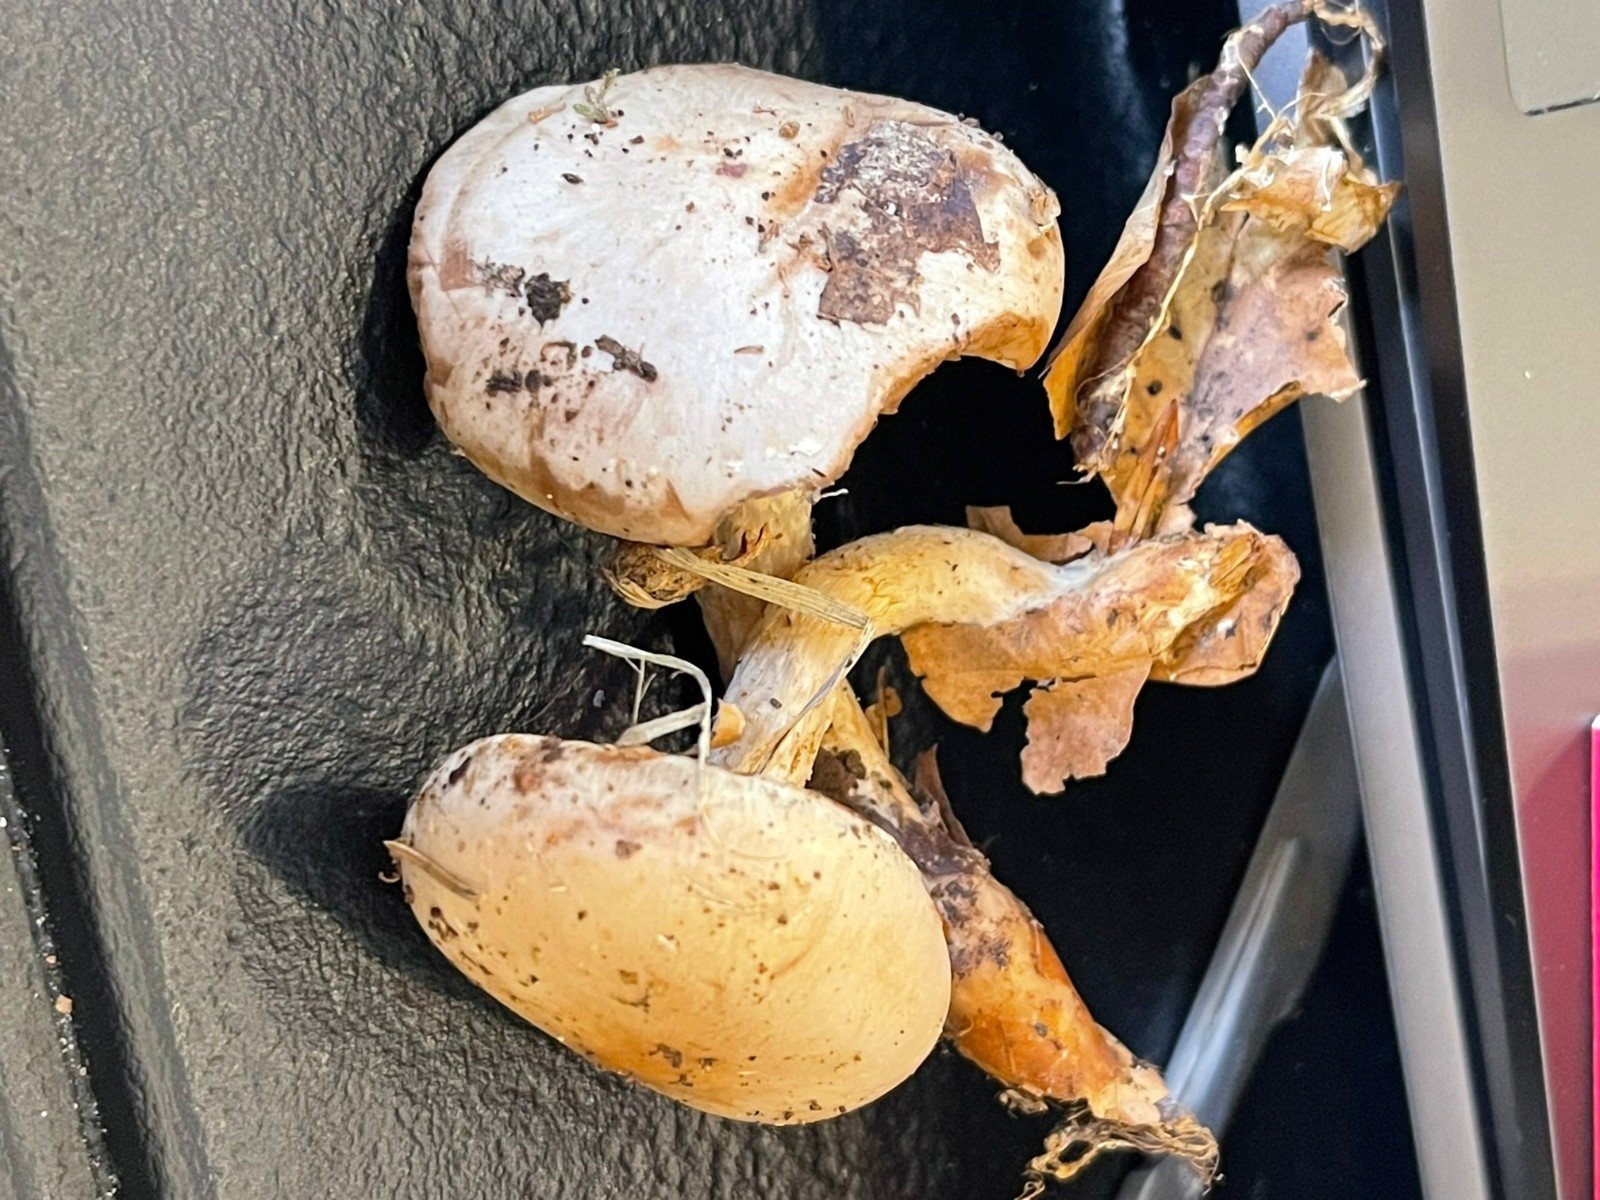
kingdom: Fungi
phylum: Basidiomycota
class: Agaricomycetes
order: Agaricales
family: Strophariaceae
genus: Pholiota
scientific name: Pholiota lenta
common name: løv-skælhat
